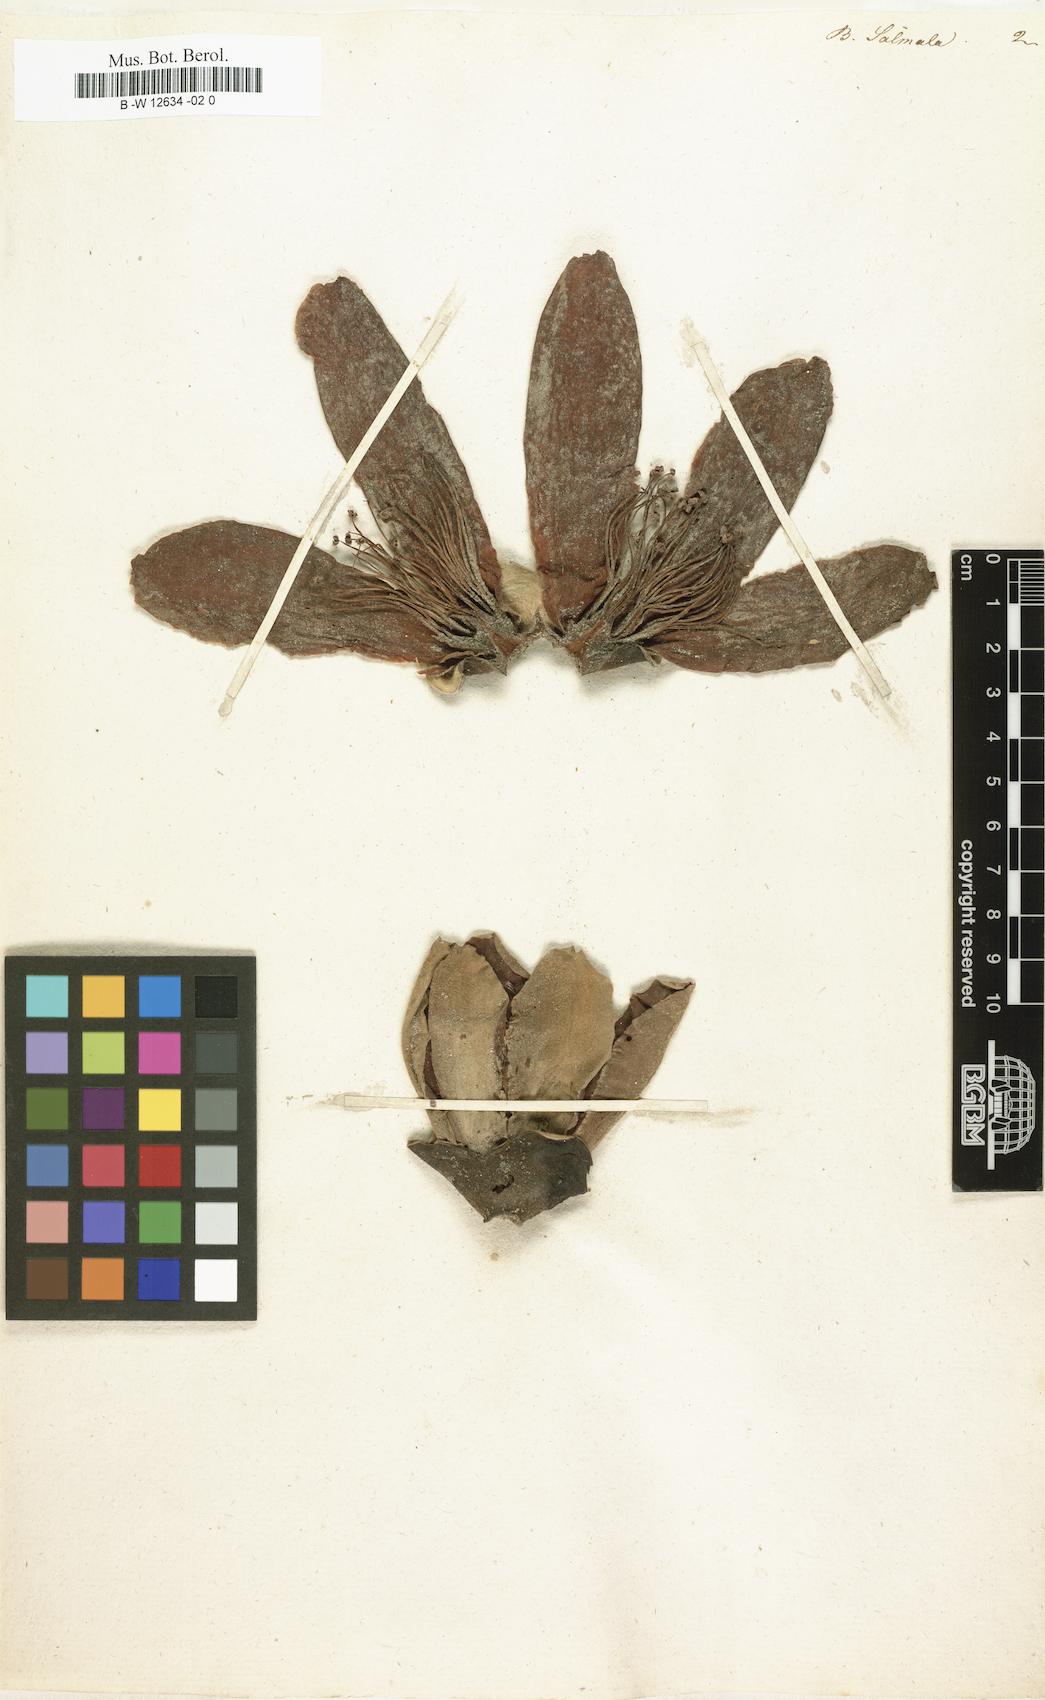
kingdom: Plantae
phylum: Tracheophyta
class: Magnoliopsida
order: Malvales
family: Malvaceae
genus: Bombax
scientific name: Bombax
